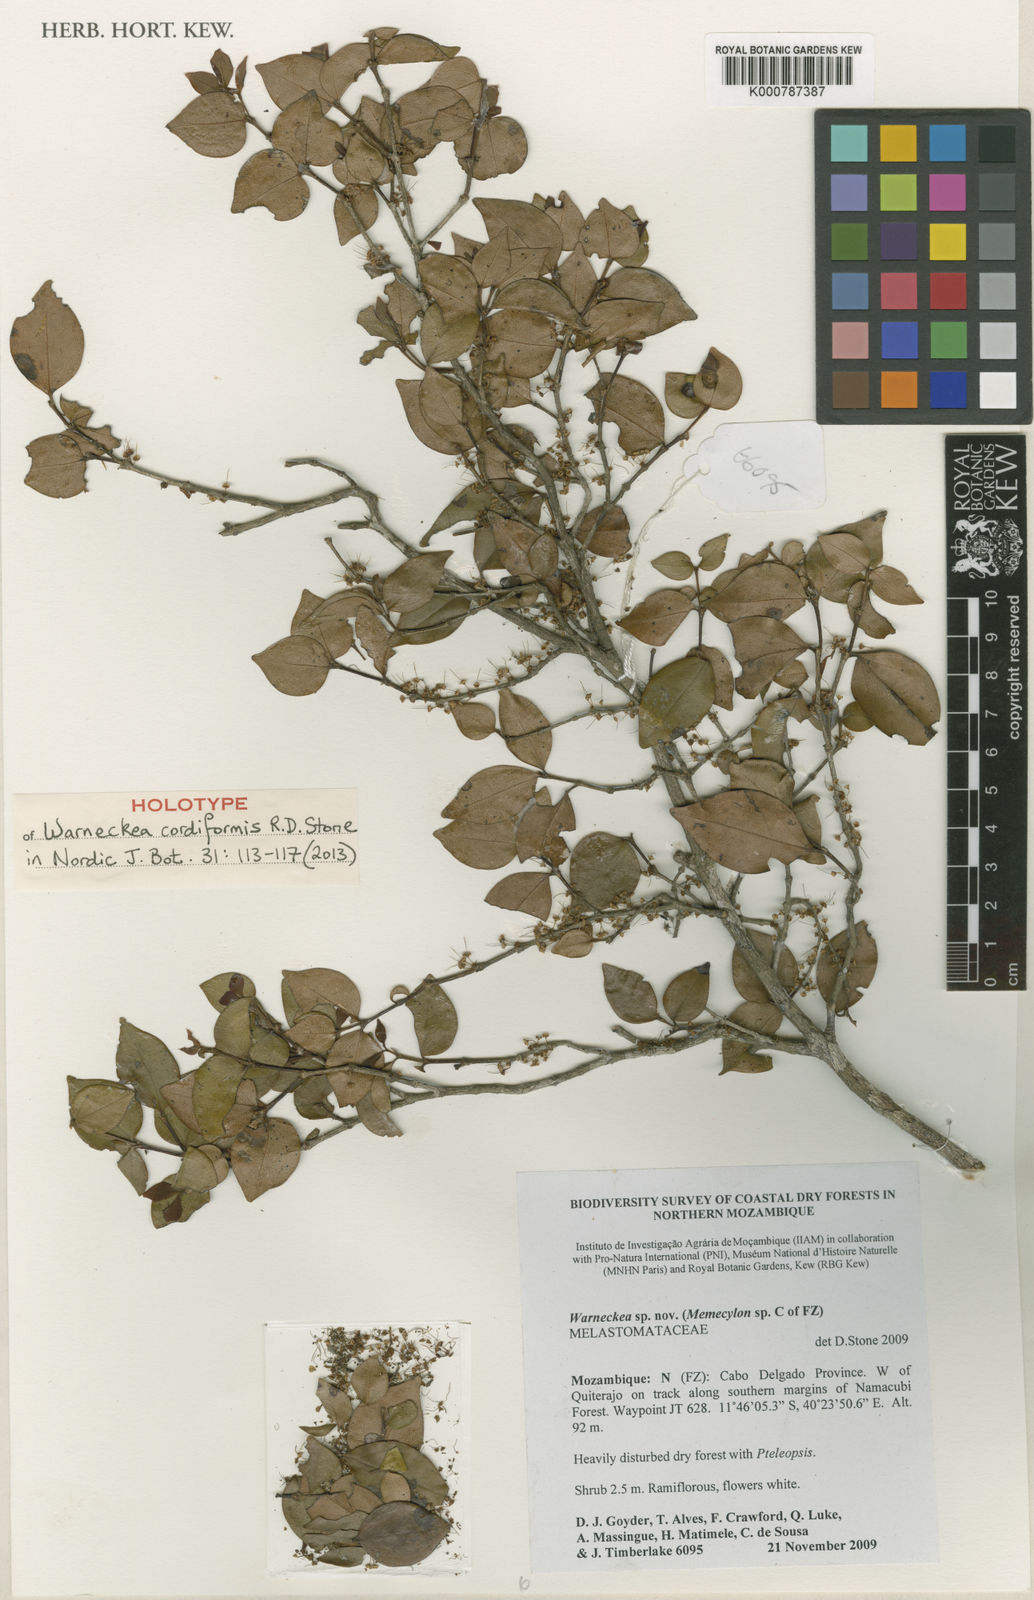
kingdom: Plantae
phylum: Tracheophyta
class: Magnoliopsida
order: Myrtales
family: Melastomataceae
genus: Warneckea
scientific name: Warneckea cordiformis
